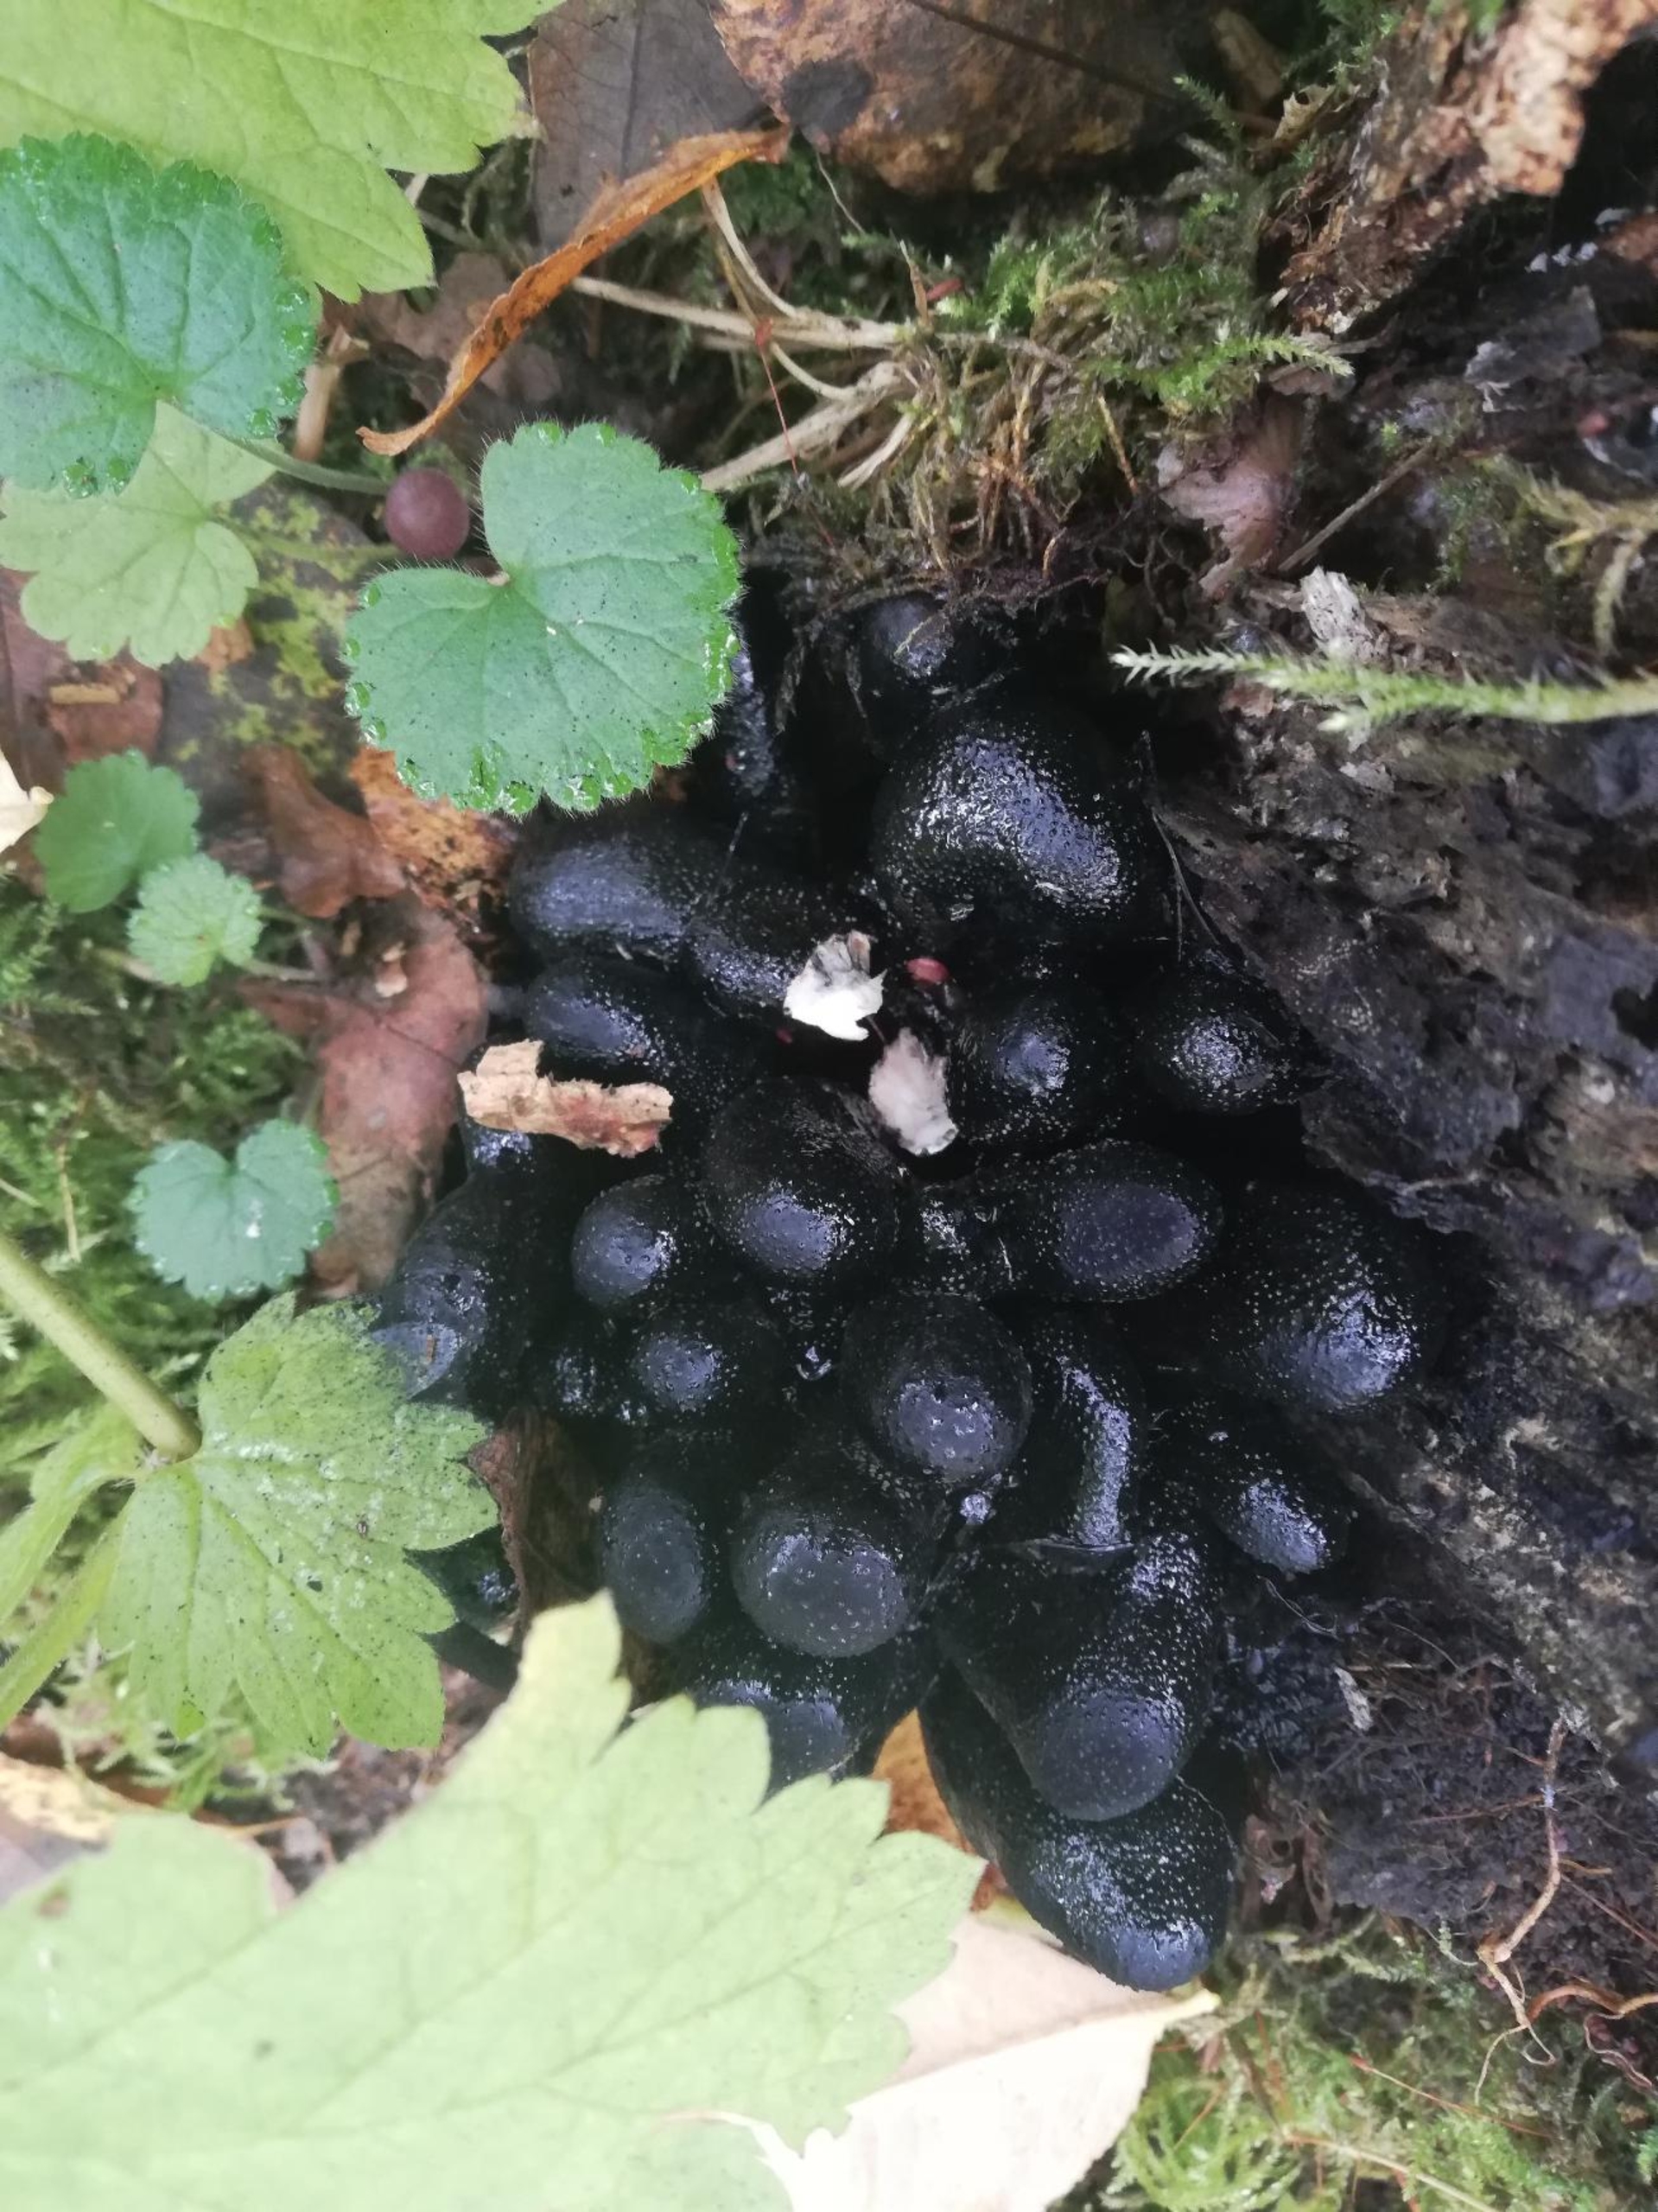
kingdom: Fungi
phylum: Ascomycota
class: Sordariomycetes
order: Xylariales
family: Xylariaceae
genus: Xylaria
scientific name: Xylaria polymorpha
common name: Kølle-stødsvamp
